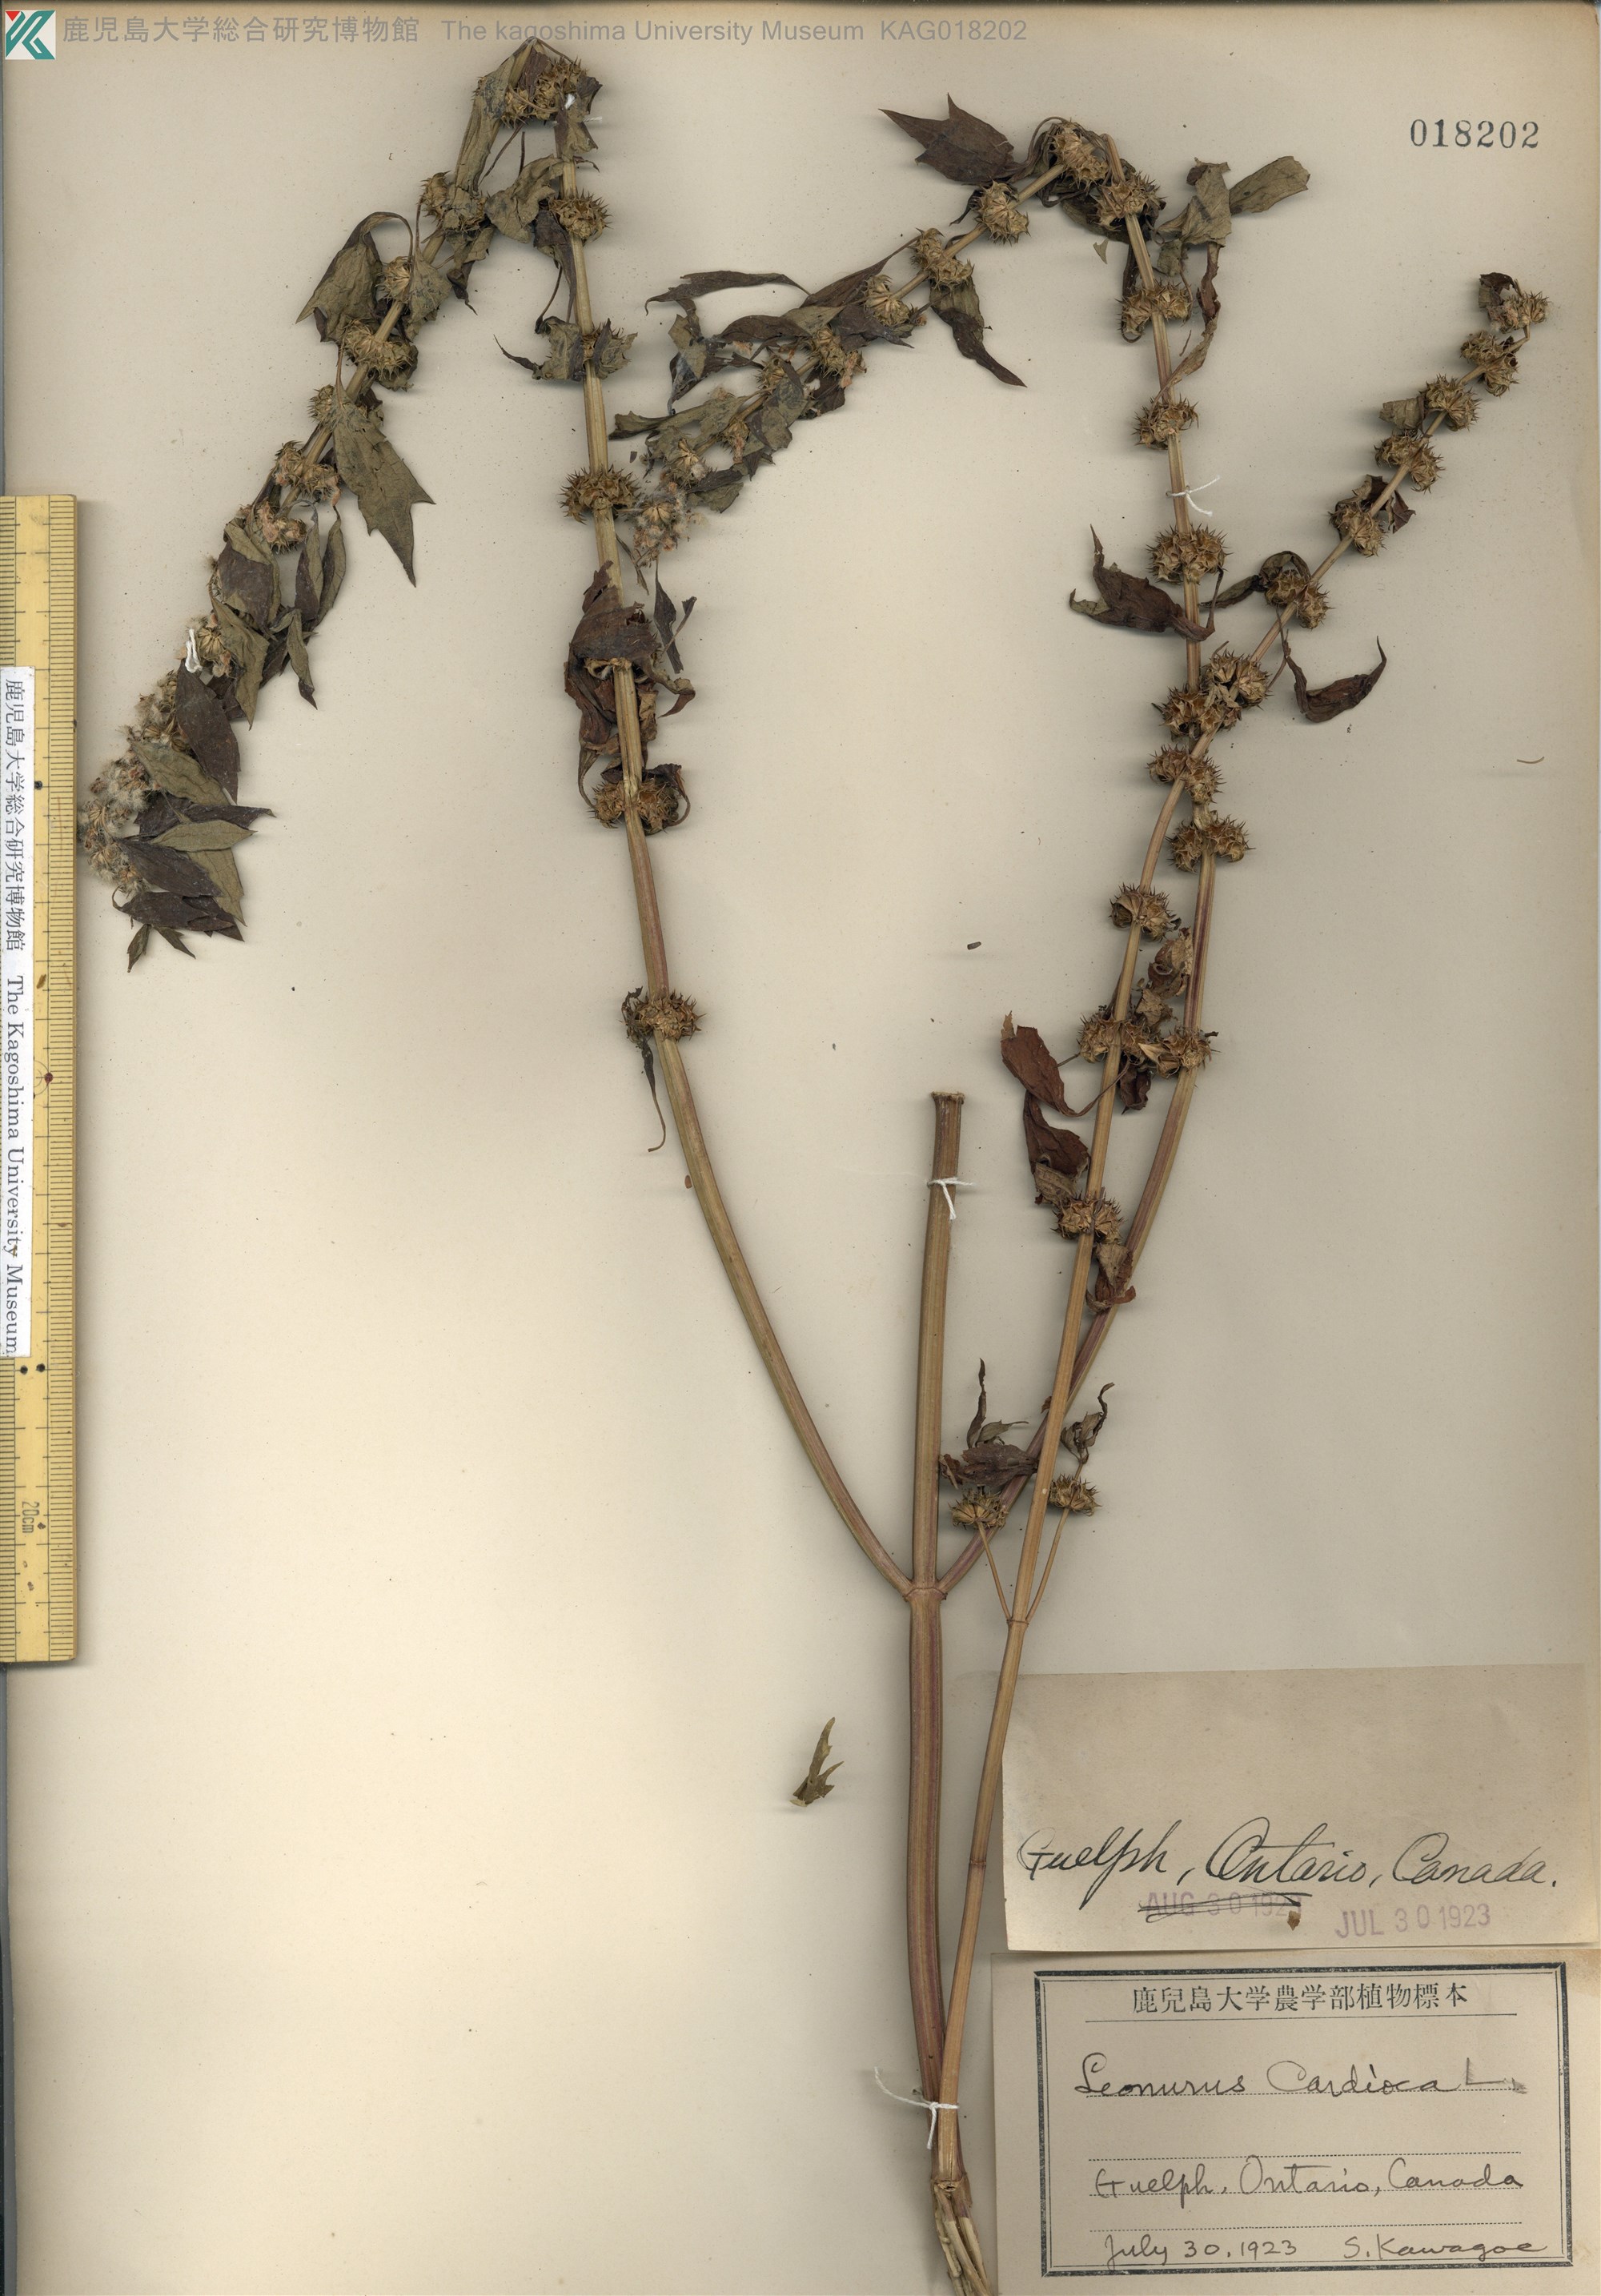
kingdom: Plantae
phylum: Tracheophyta
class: Magnoliopsida
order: Lamiales
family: Lamiaceae
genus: Leonurus
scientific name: Leonurus cardiaca
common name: Motherwort
